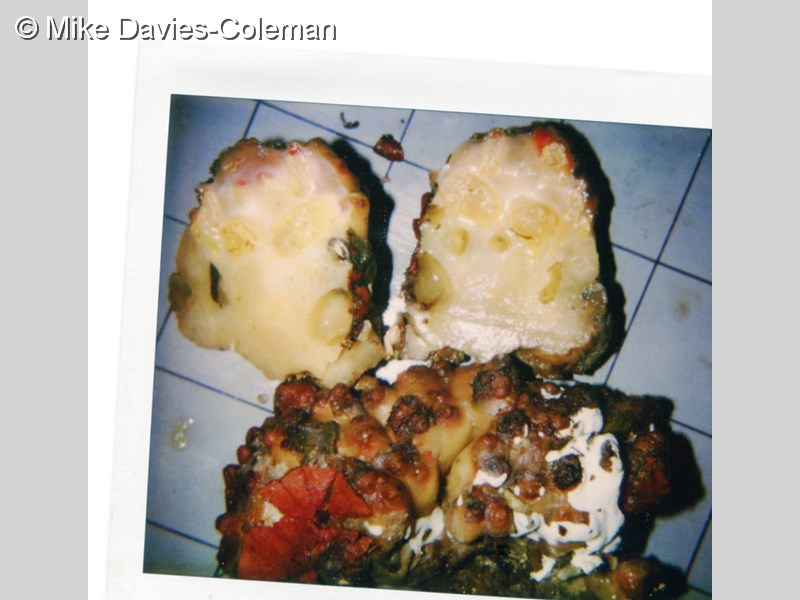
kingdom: Animalia
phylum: Chordata
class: Ascidiacea
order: Phlebobranchia
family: Perophoridae
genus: Ecteinascidia
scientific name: Ecteinascidia
